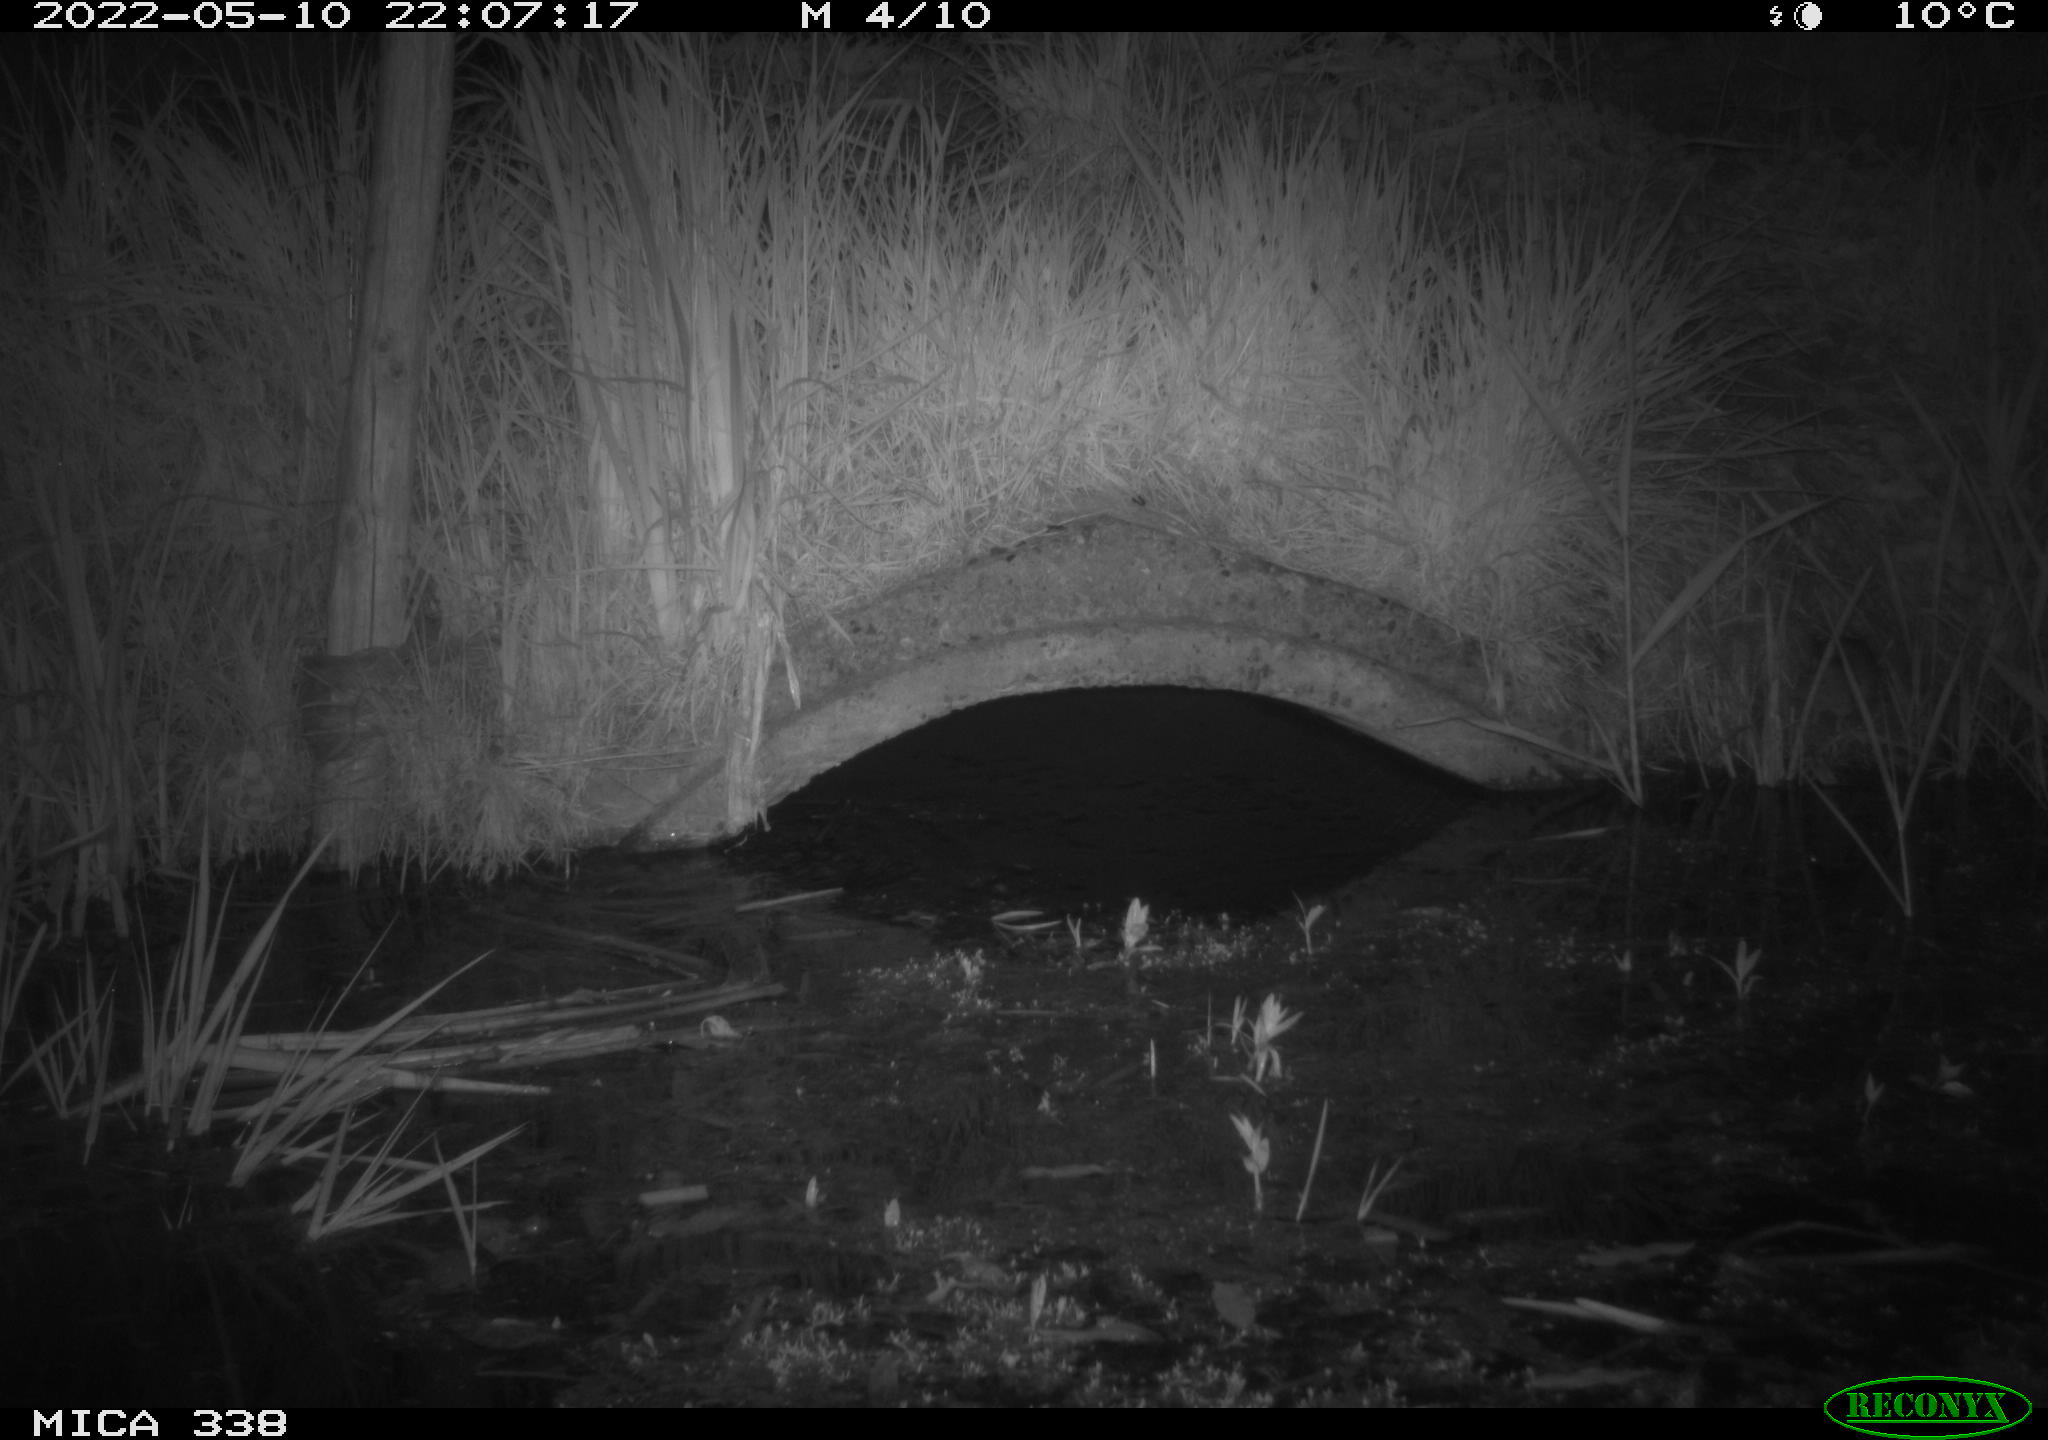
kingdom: Animalia
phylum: Chordata
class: Mammalia
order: Rodentia
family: Muridae
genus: Rattus
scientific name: Rattus norvegicus
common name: Brown rat
